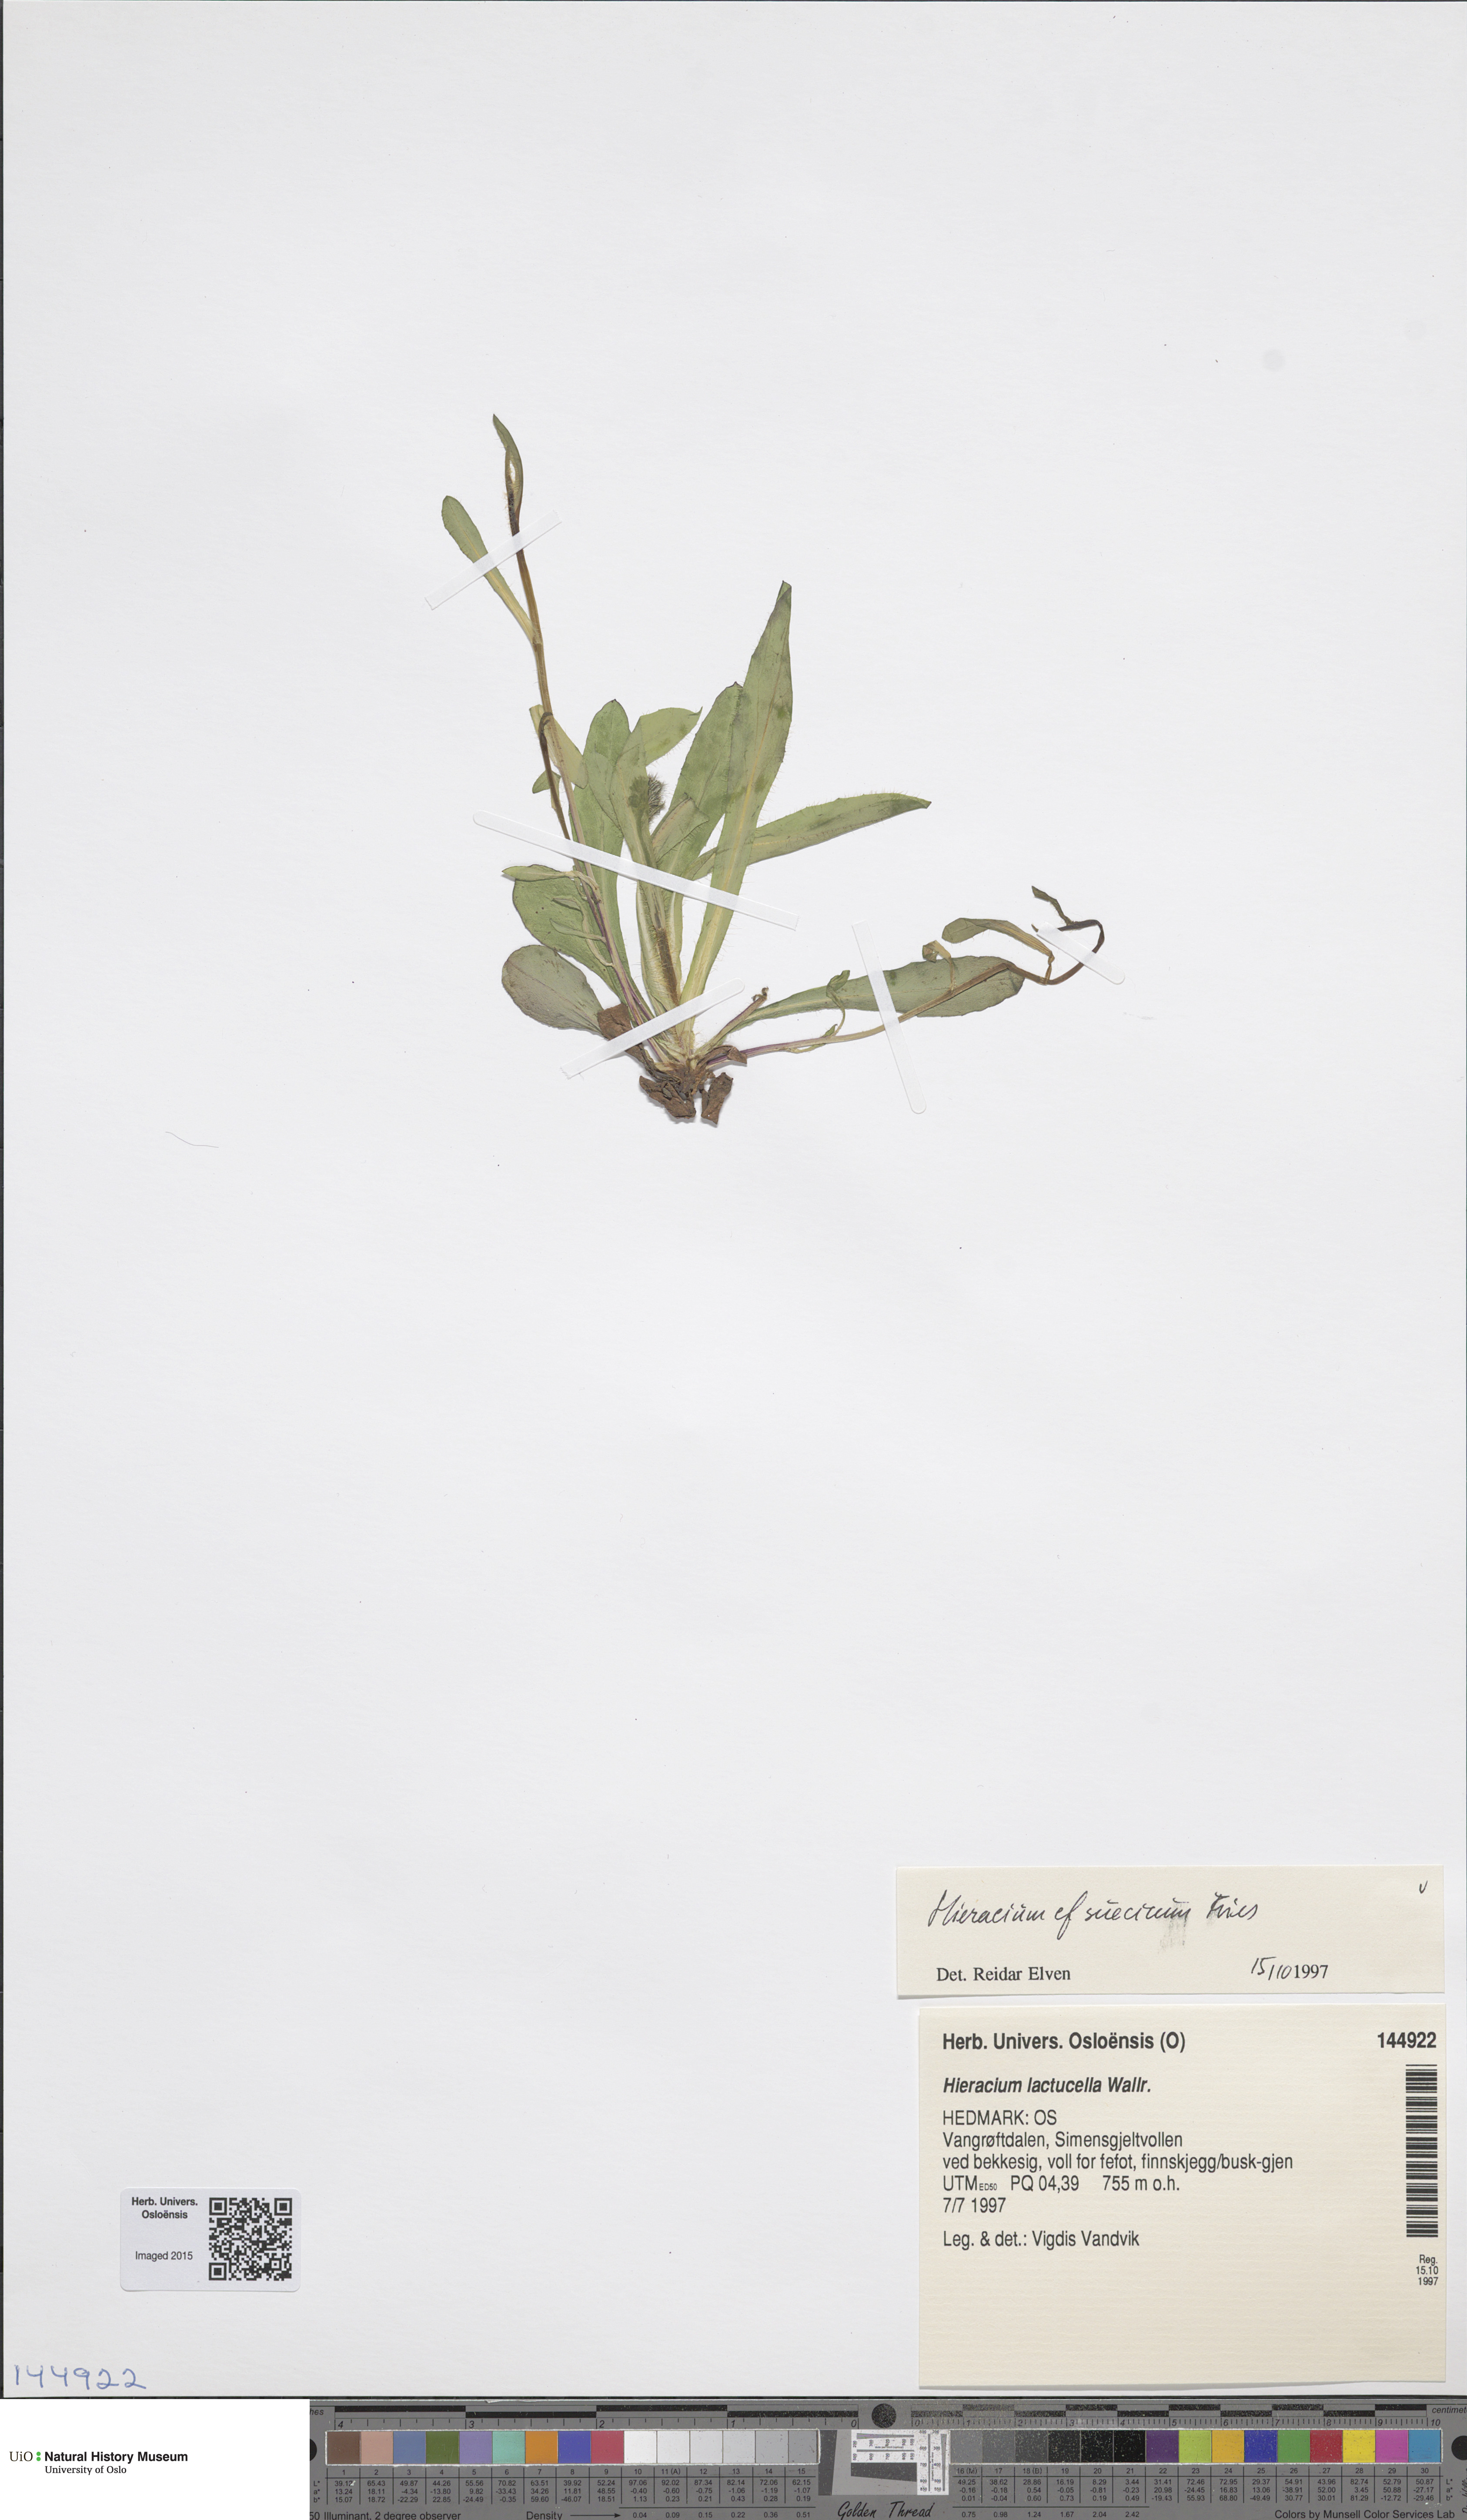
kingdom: Plantae
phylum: Tracheophyta
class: Magnoliopsida
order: Asterales
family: Asteraceae
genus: Pilosella
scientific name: Pilosella dubia
